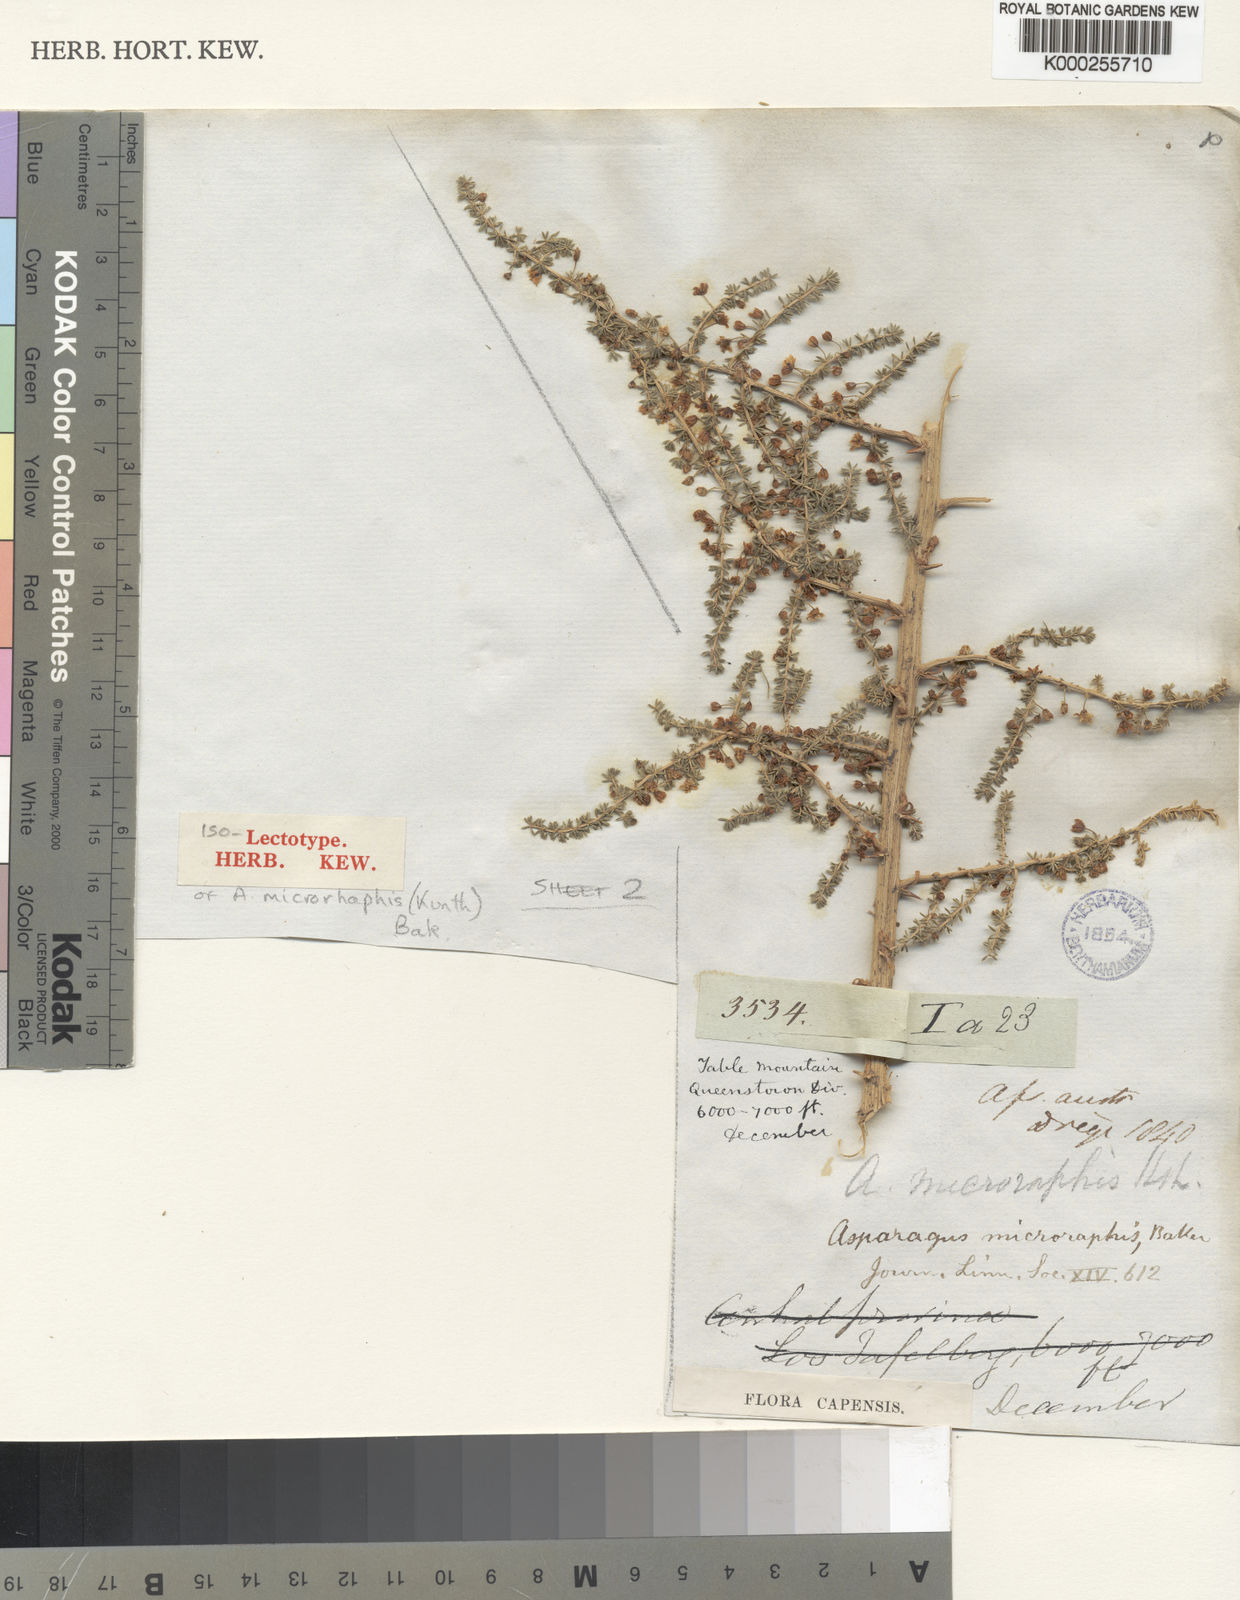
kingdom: Plantae
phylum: Tracheophyta
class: Liliopsida
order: Asparagales
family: Asparagaceae
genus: Asparagus
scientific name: Asparagus microraphis
